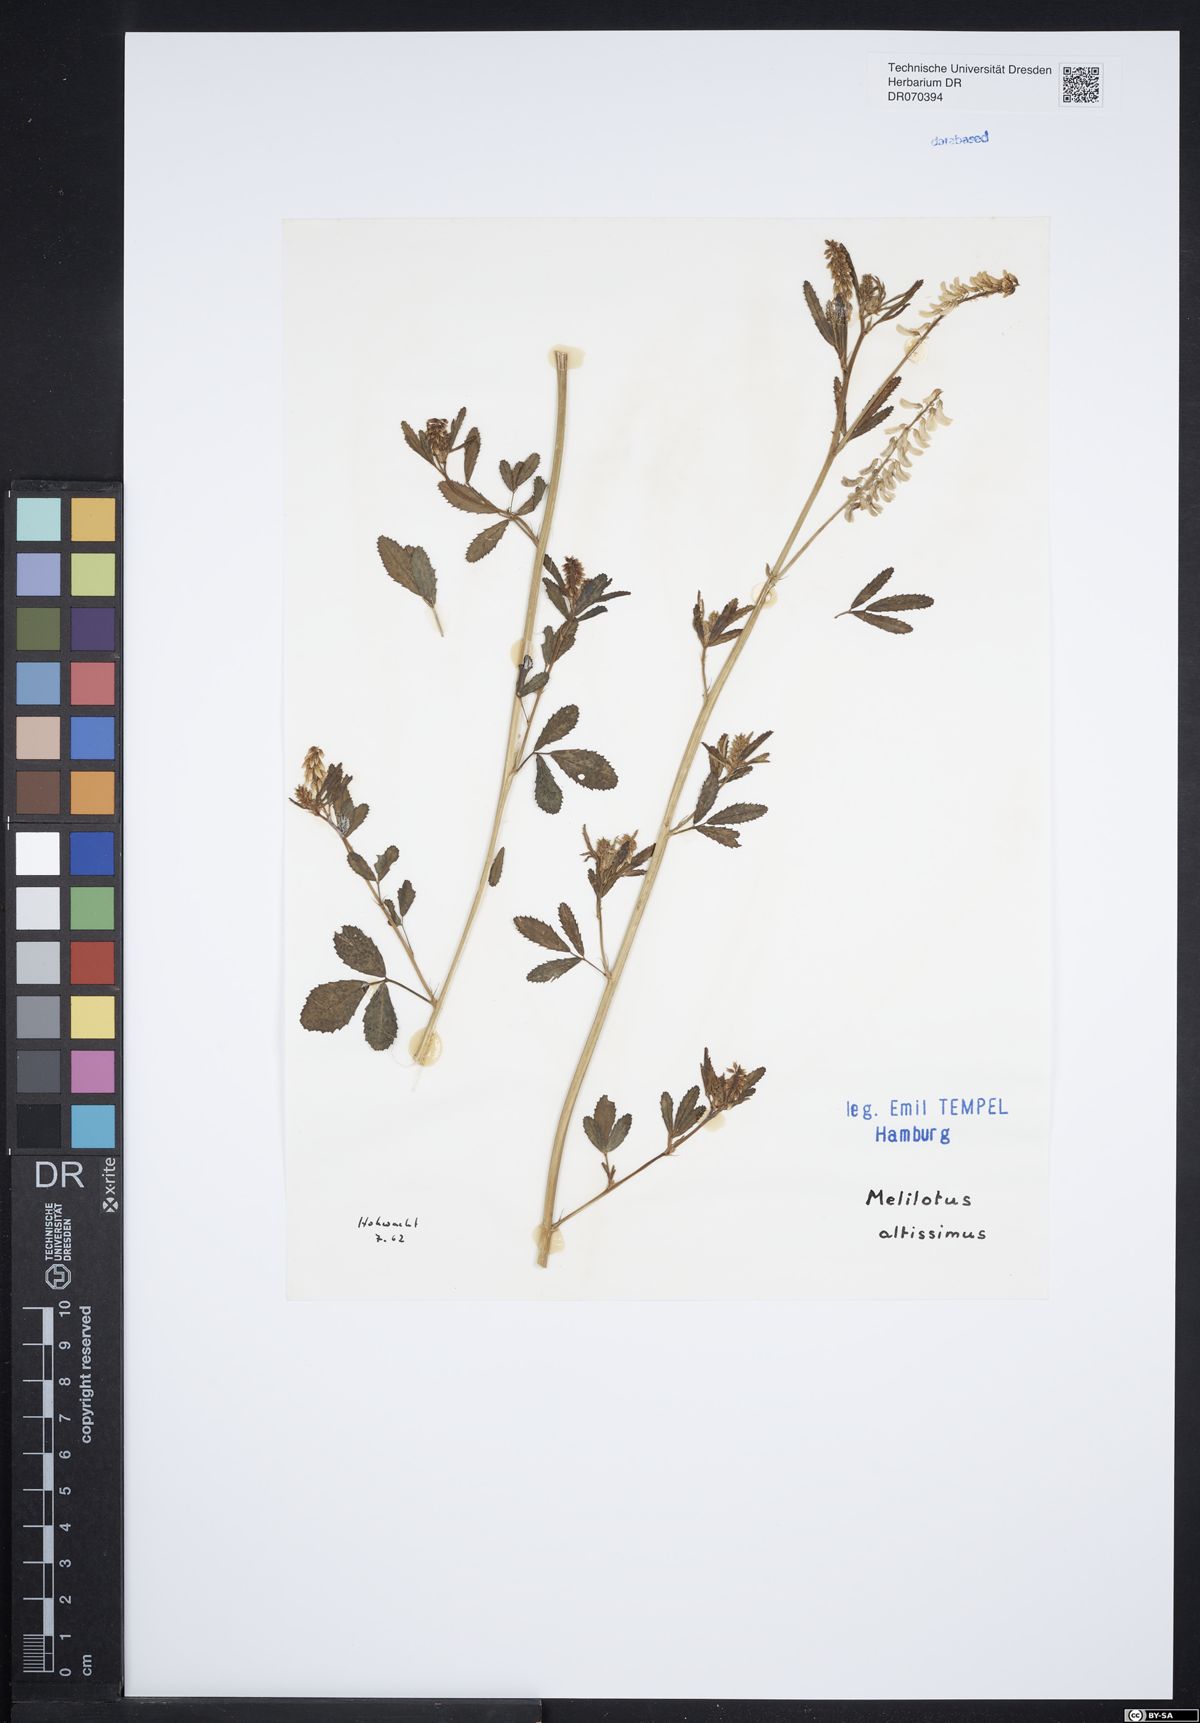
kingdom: Plantae
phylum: Tracheophyta
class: Magnoliopsida
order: Fabales
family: Fabaceae
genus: Melilotus
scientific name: Melilotus altissimus
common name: Tall melilot
